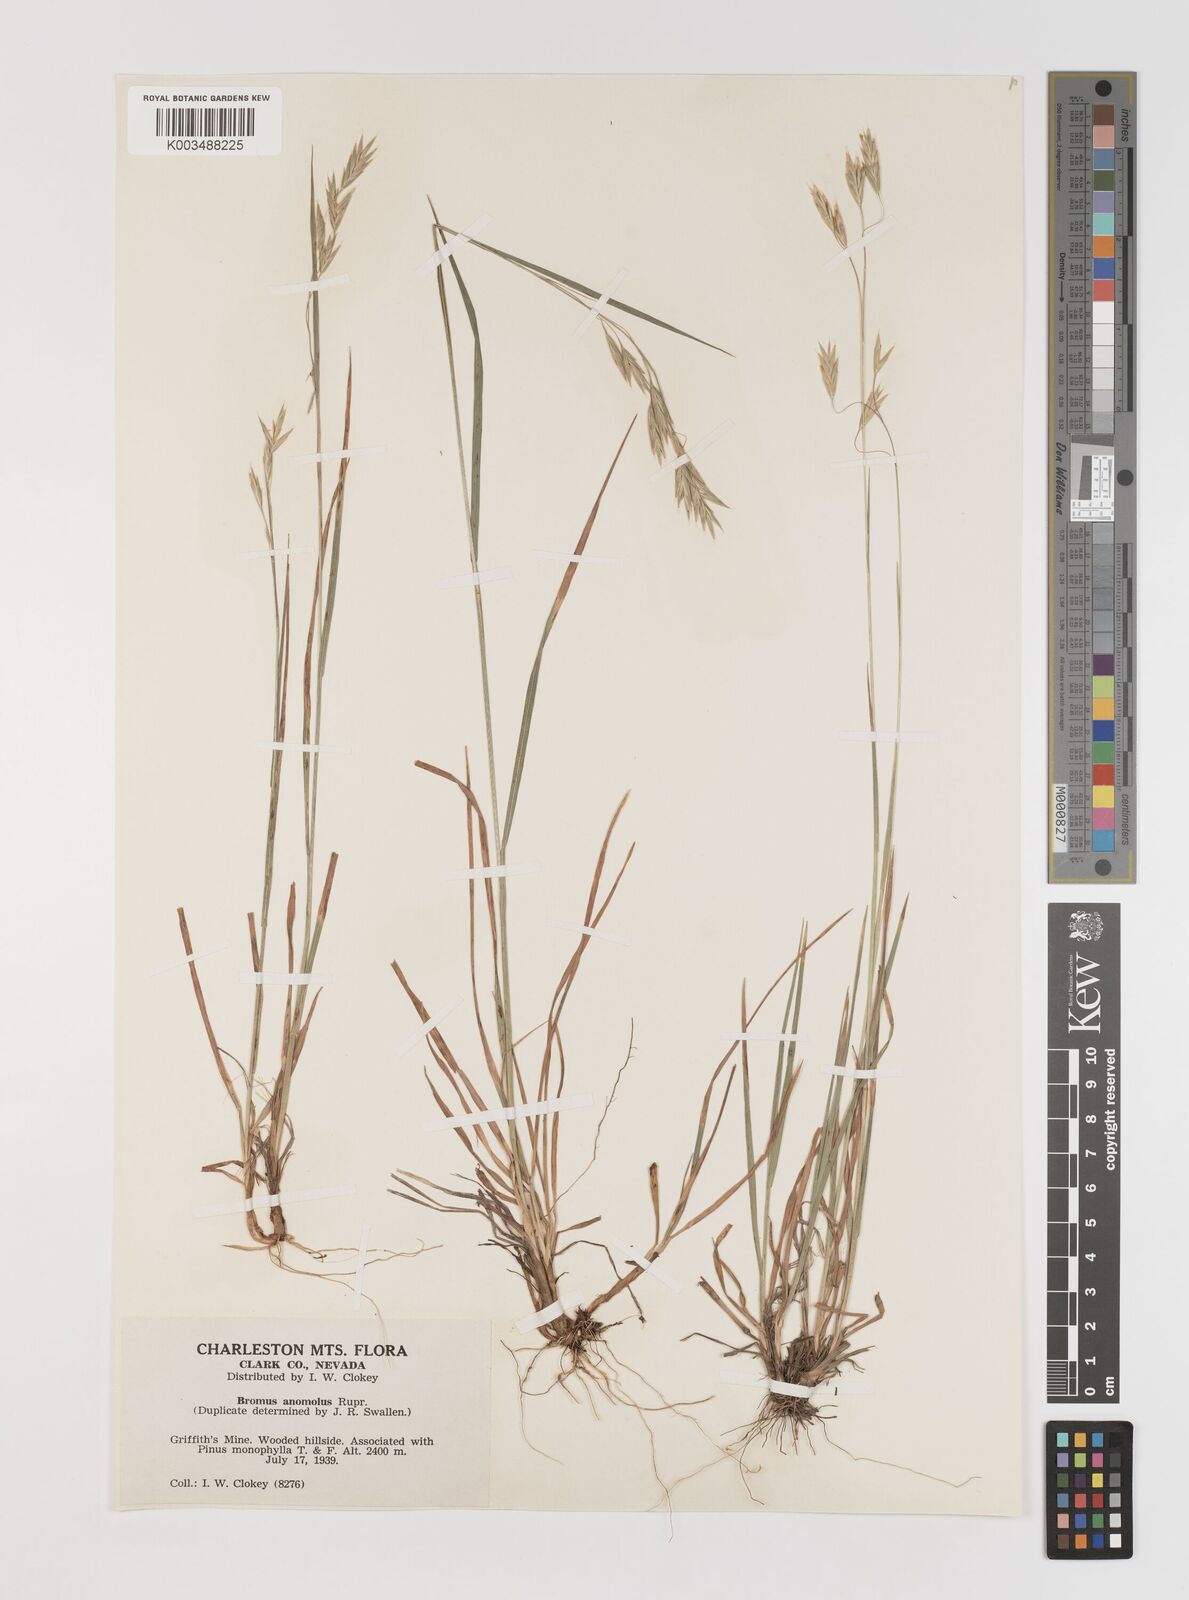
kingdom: Plantae
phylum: Tracheophyta
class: Liliopsida
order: Poales
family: Poaceae
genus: Bromus
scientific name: Bromus anomalus
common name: Nodding brome
